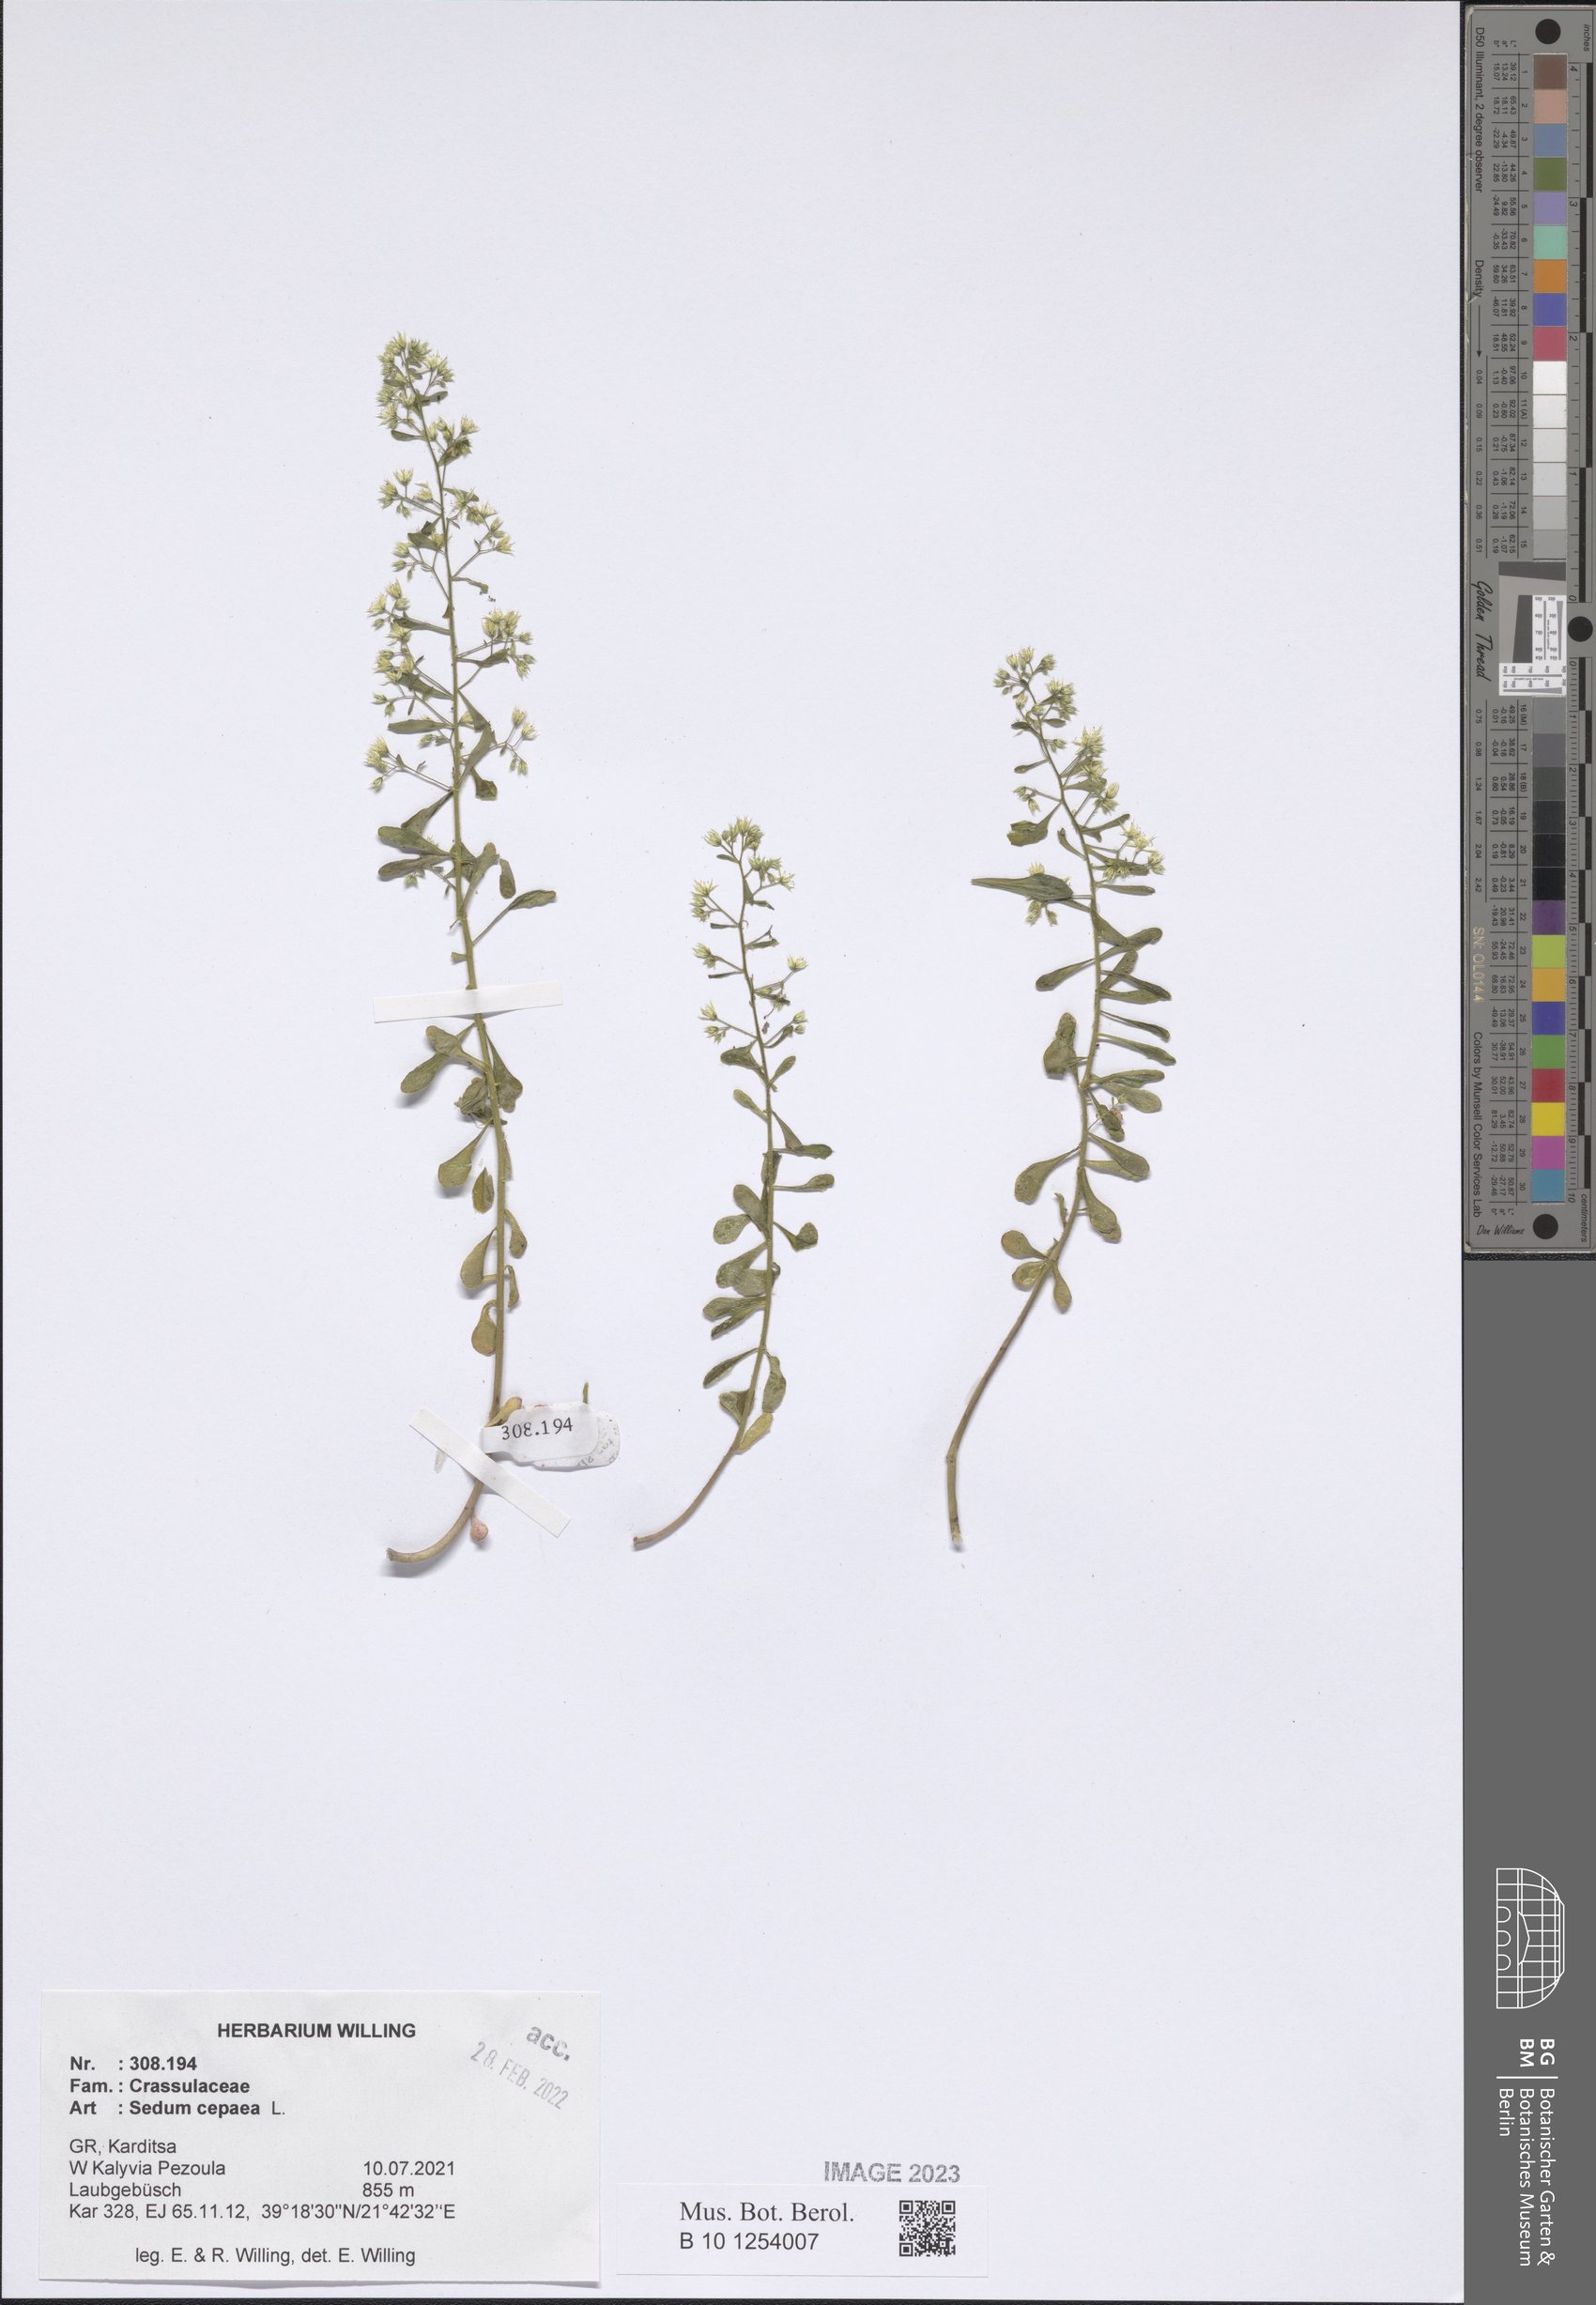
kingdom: Plantae
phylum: Tracheophyta
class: Magnoliopsida
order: Saxifragales
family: Crassulaceae
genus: Sedum
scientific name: Sedum cepaea
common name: Pink stonecrop
